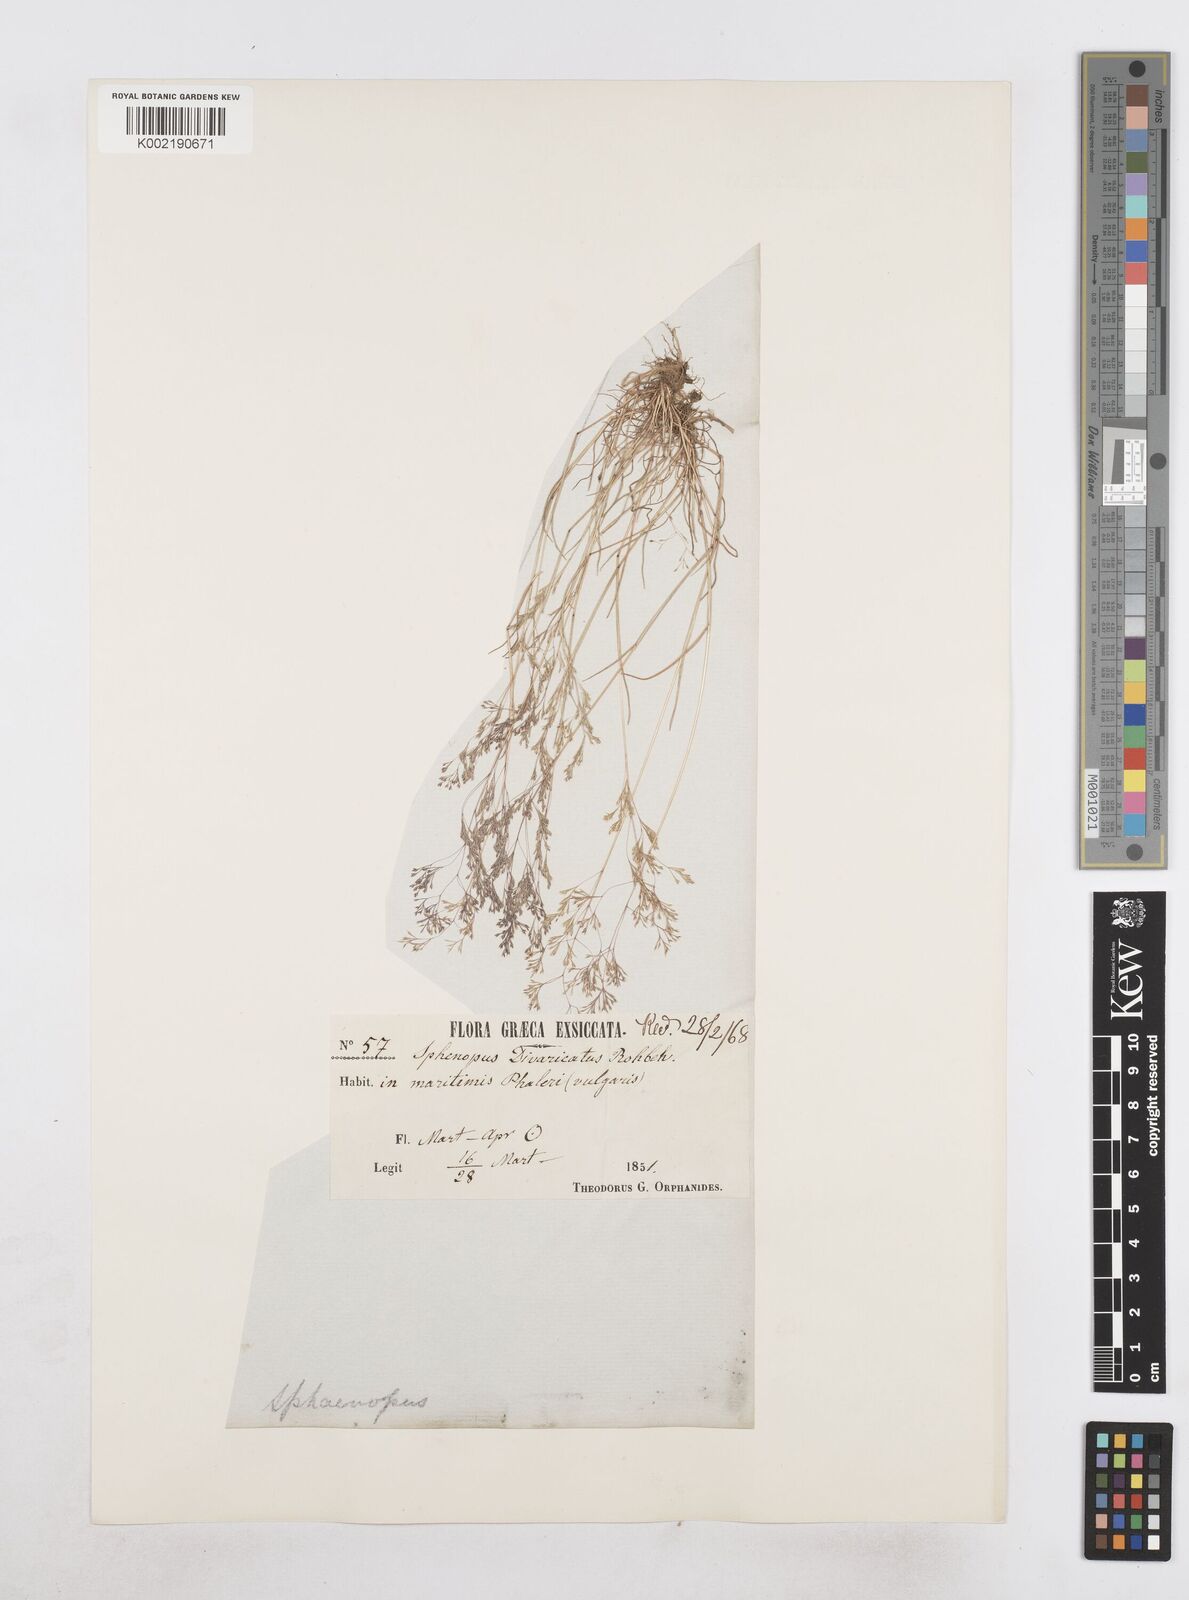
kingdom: Plantae
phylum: Tracheophyta
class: Liliopsida
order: Poales
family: Poaceae
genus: Sphenopus
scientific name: Sphenopus divaricatus
